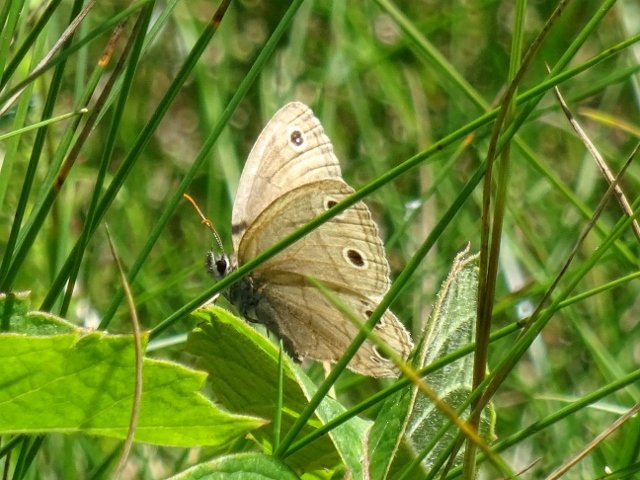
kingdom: Animalia
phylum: Arthropoda
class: Insecta
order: Lepidoptera
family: Nymphalidae
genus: Euptychia
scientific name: Euptychia cymela
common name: Little Wood Satyr
